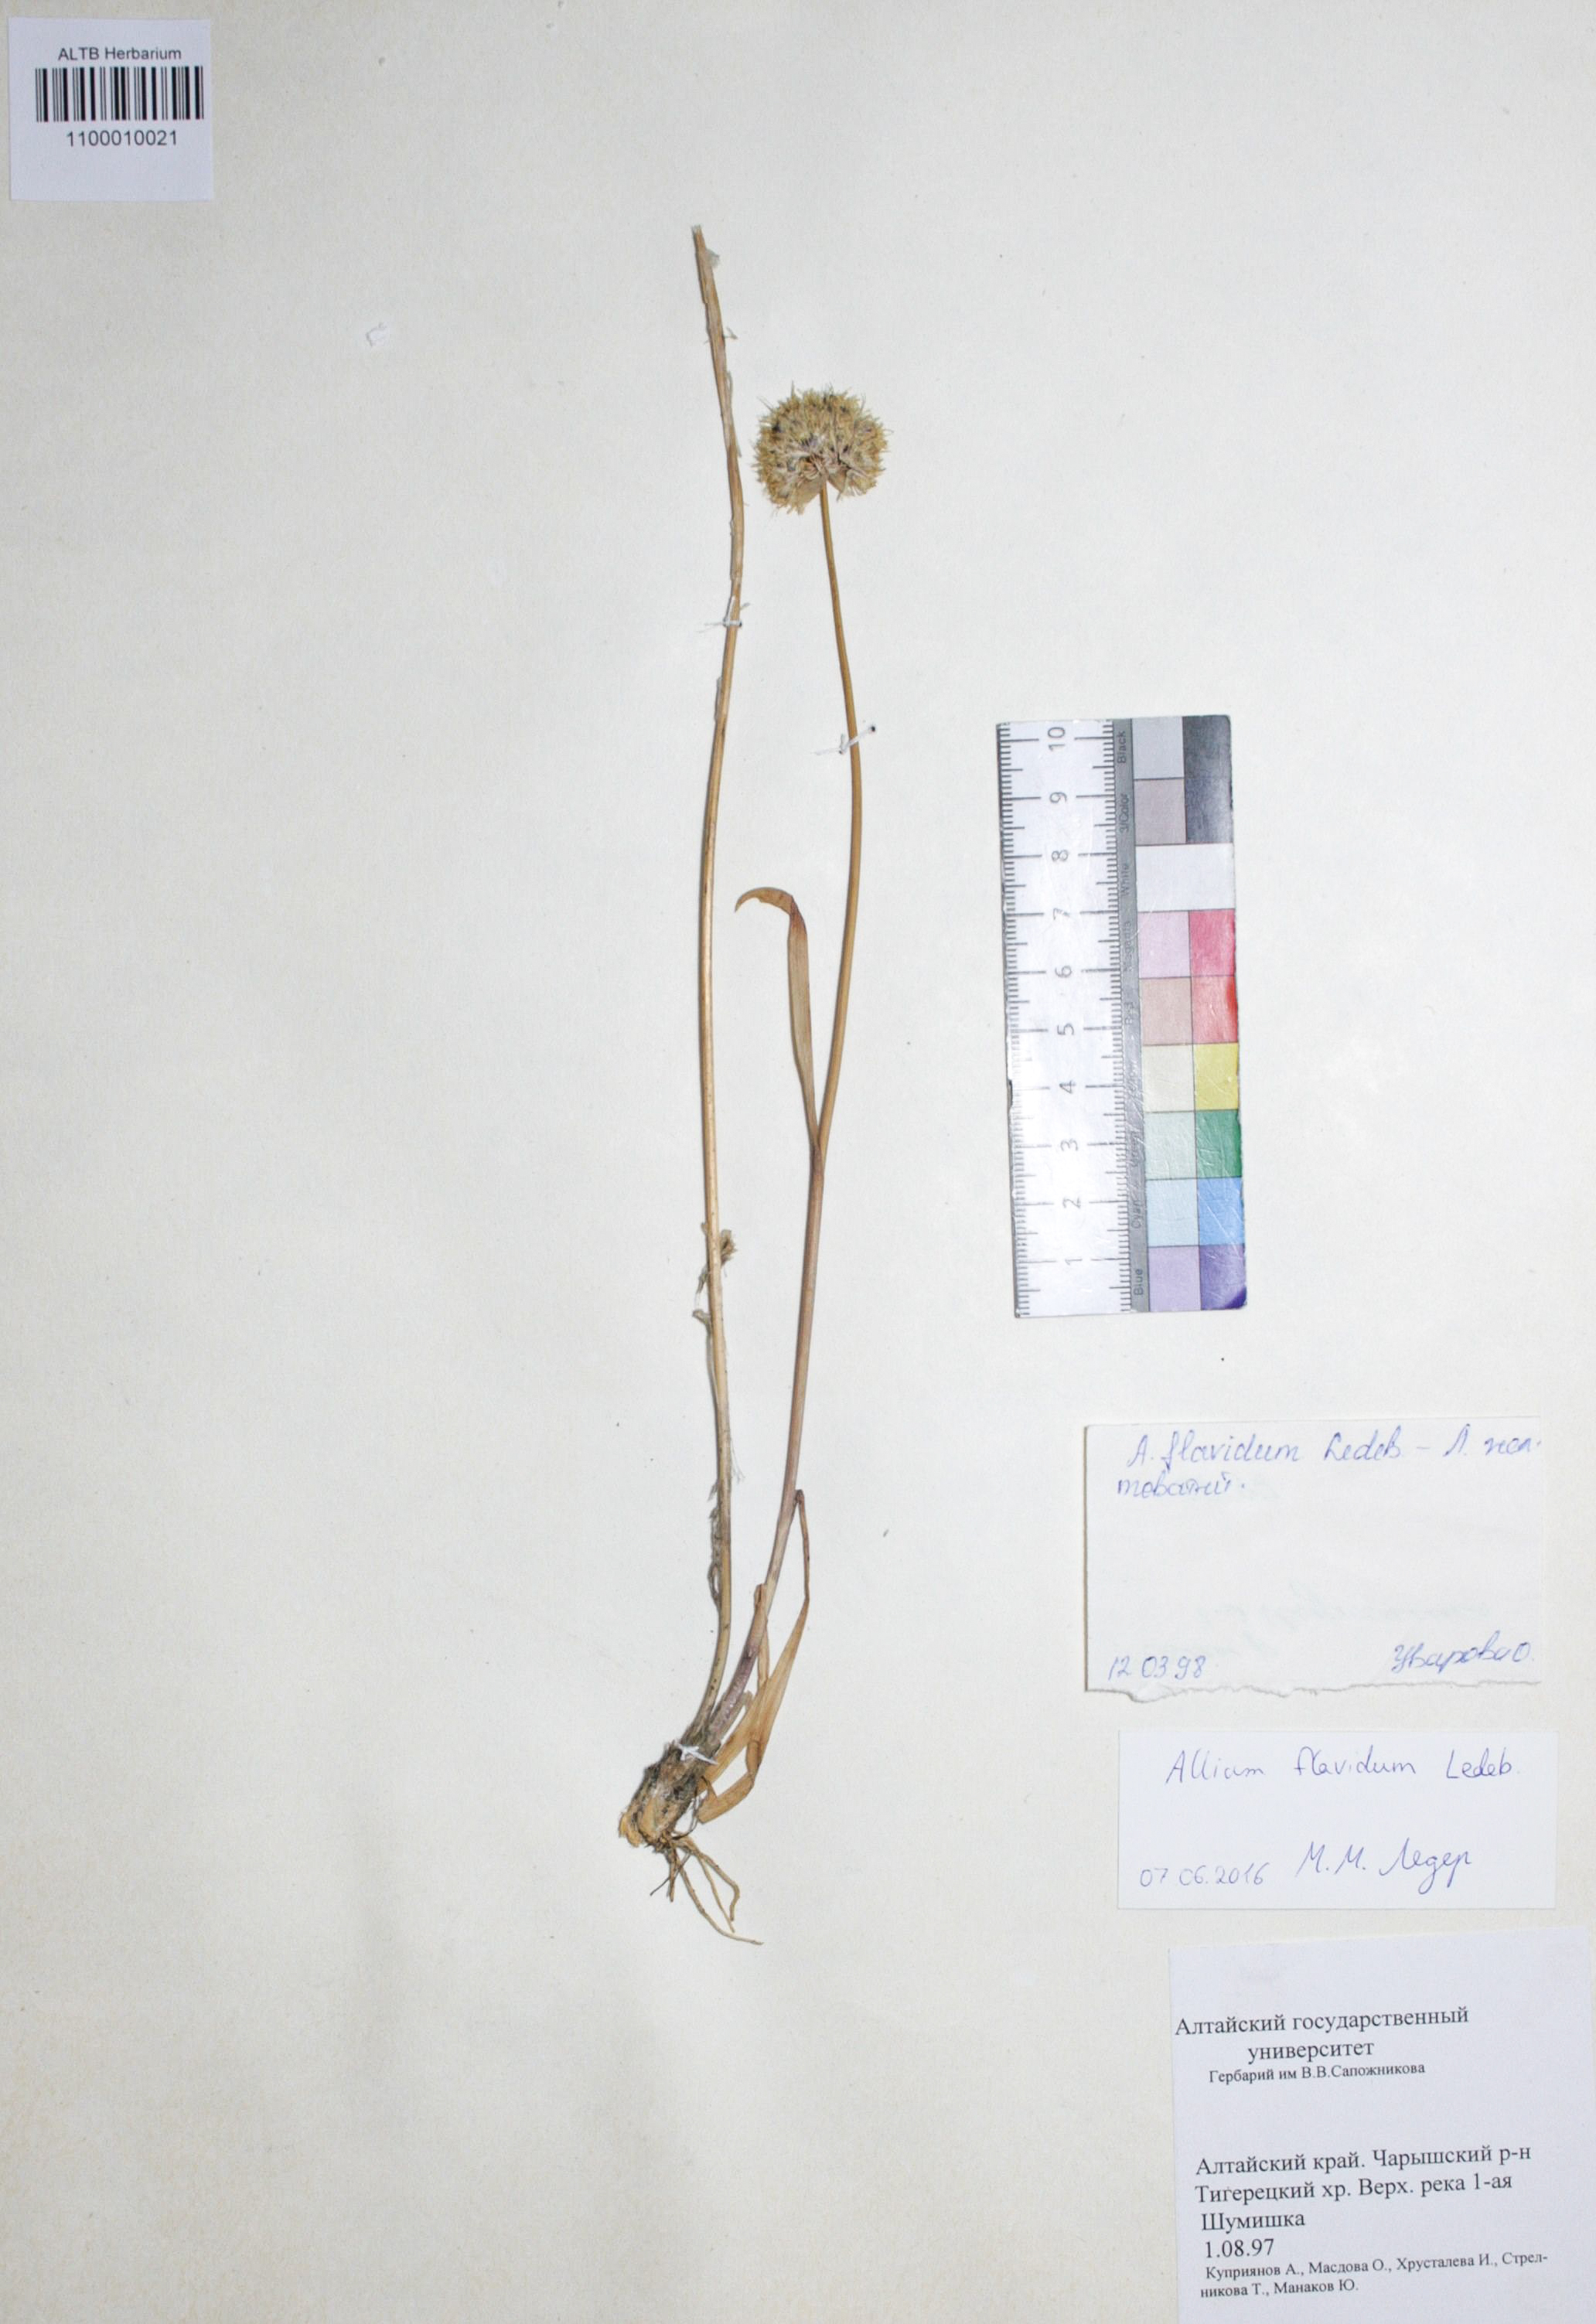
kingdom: Plantae
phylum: Tracheophyta
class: Liliopsida
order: Asparagales
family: Amaryllidaceae
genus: Allium
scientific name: Allium flavidum
